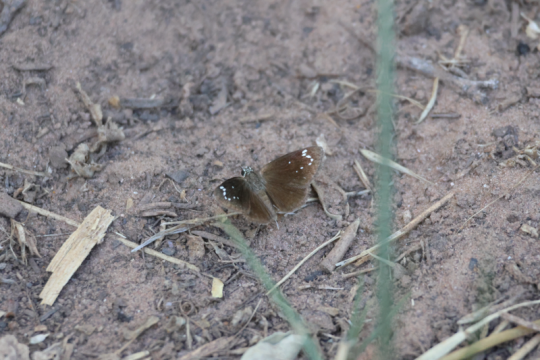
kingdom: Animalia
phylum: Arthropoda
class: Insecta
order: Lepidoptera
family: Hesperiidae
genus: Pholisora
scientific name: Pholisora catullus
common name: Common Sootywing
